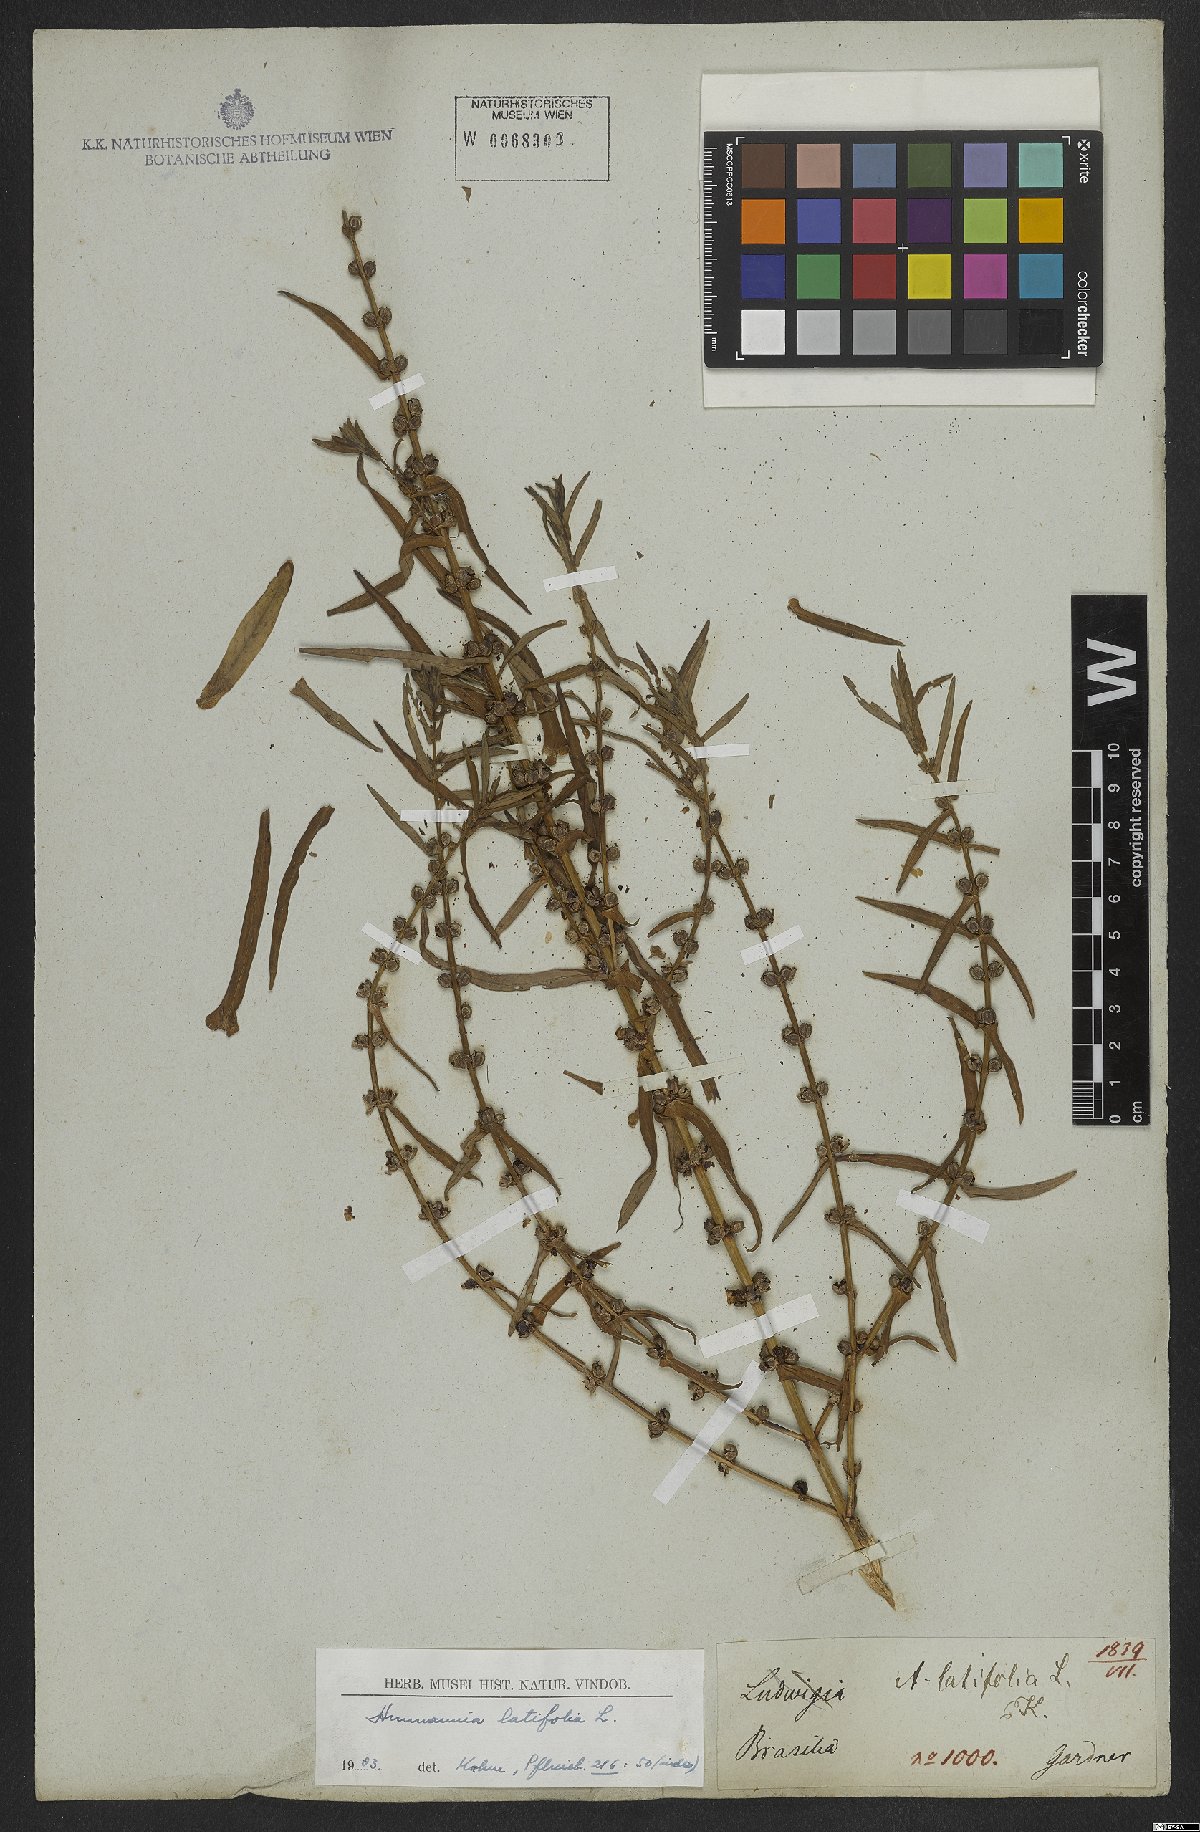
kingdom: Plantae
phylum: Tracheophyta
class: Magnoliopsida
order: Myrtales
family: Lythraceae
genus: Ammannia
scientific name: Ammannia latifolia
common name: Toothcup
